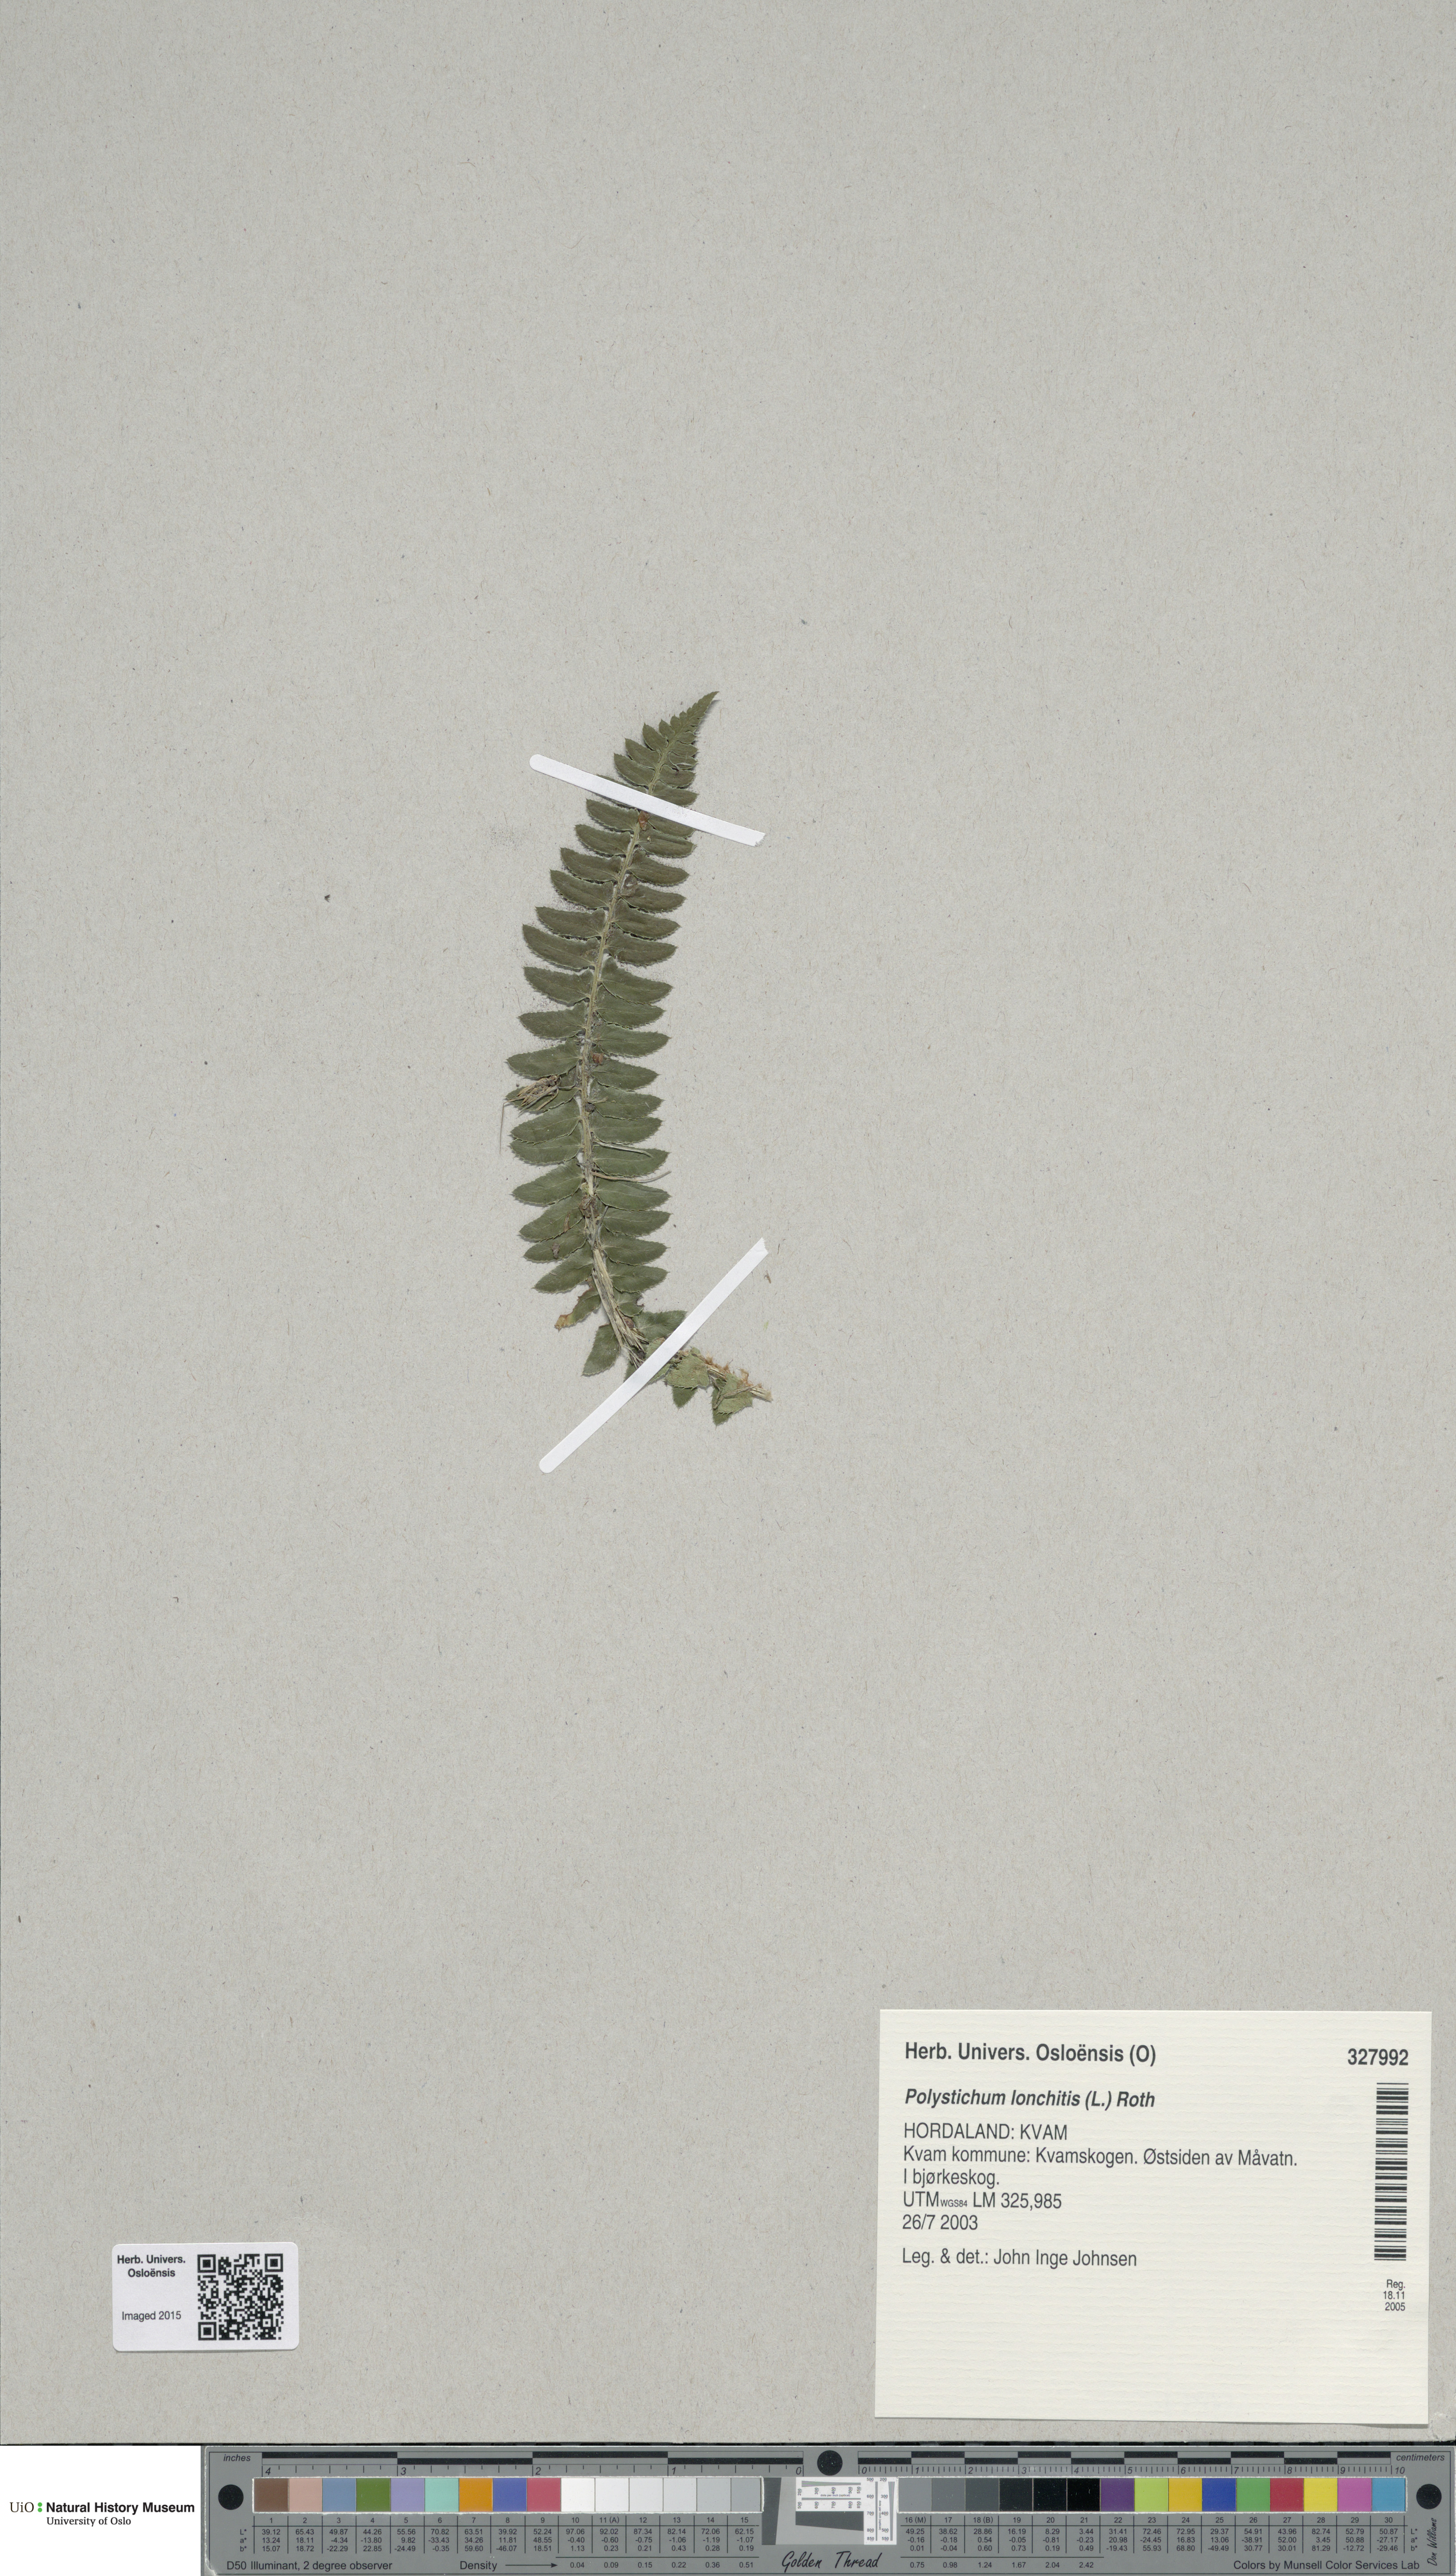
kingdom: Plantae
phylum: Tracheophyta
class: Polypodiopsida
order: Polypodiales
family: Dryopteridaceae
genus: Polystichum
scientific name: Polystichum lonchitis
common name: Holly fern
